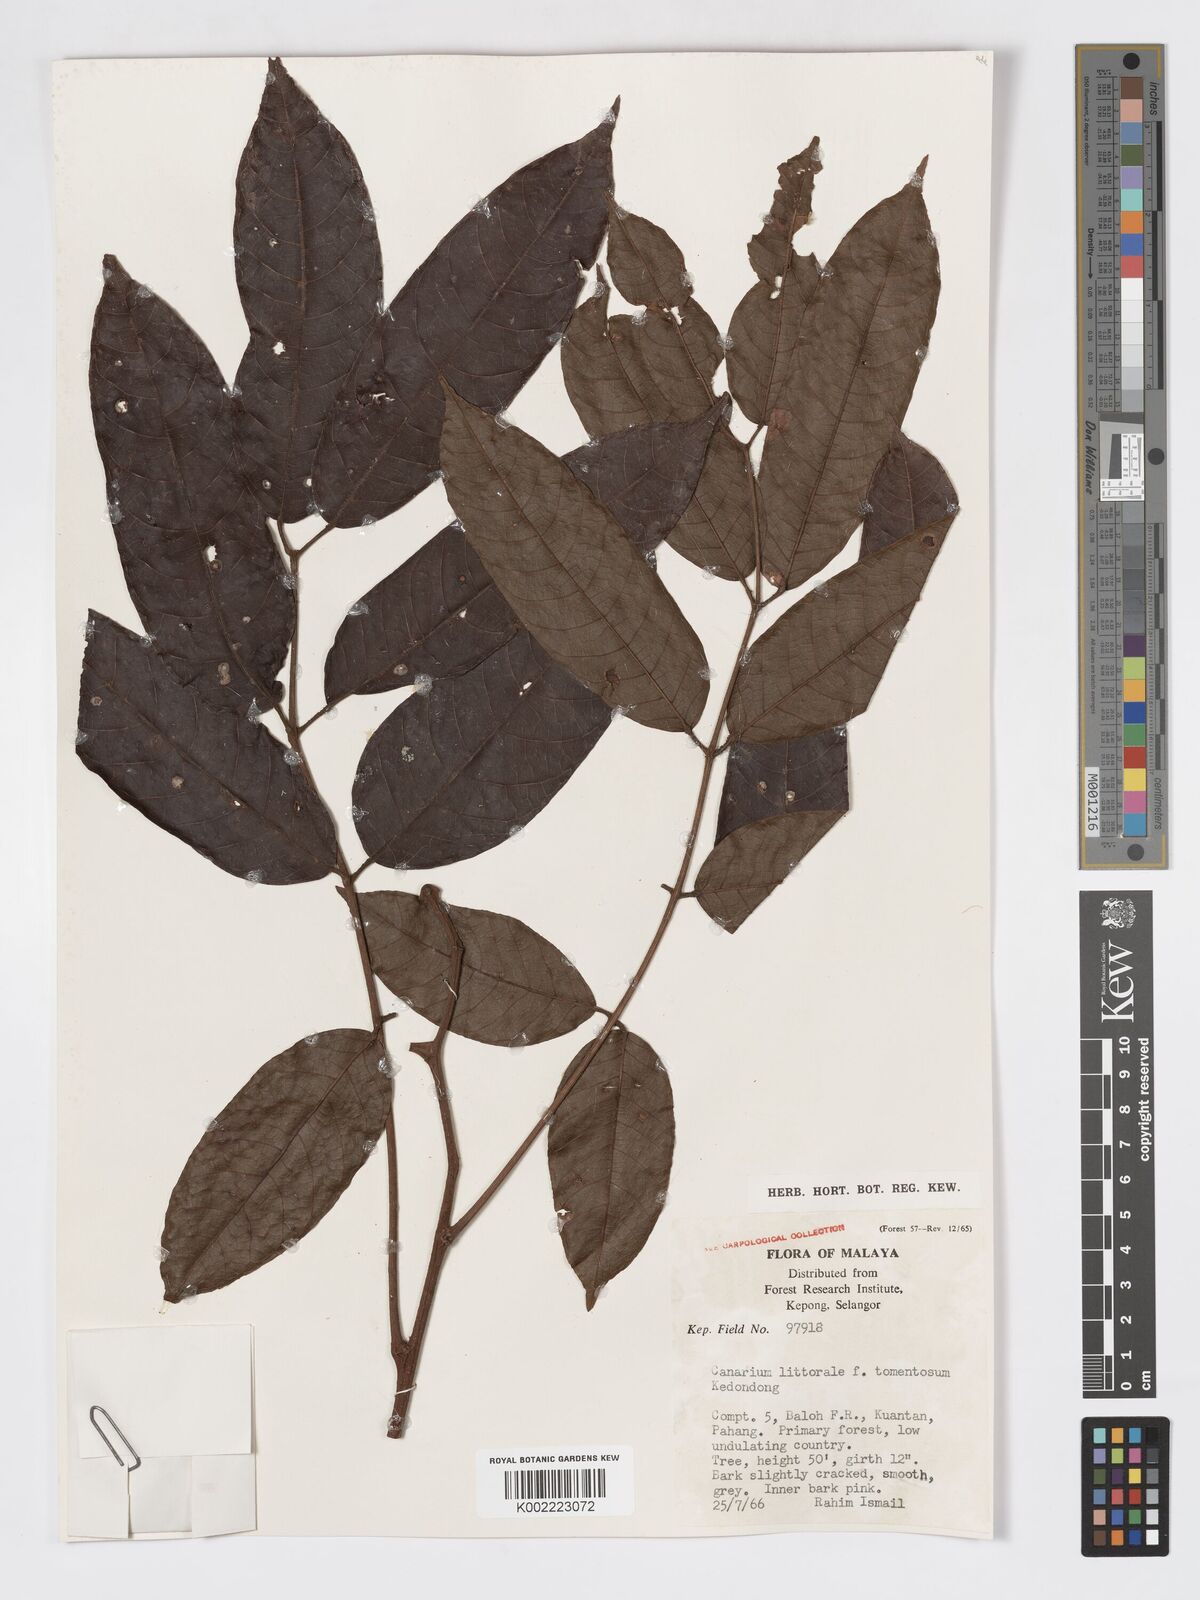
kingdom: Plantae
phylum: Tracheophyta
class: Magnoliopsida
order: Sapindales
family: Burseraceae
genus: Canarium
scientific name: Canarium littorale
